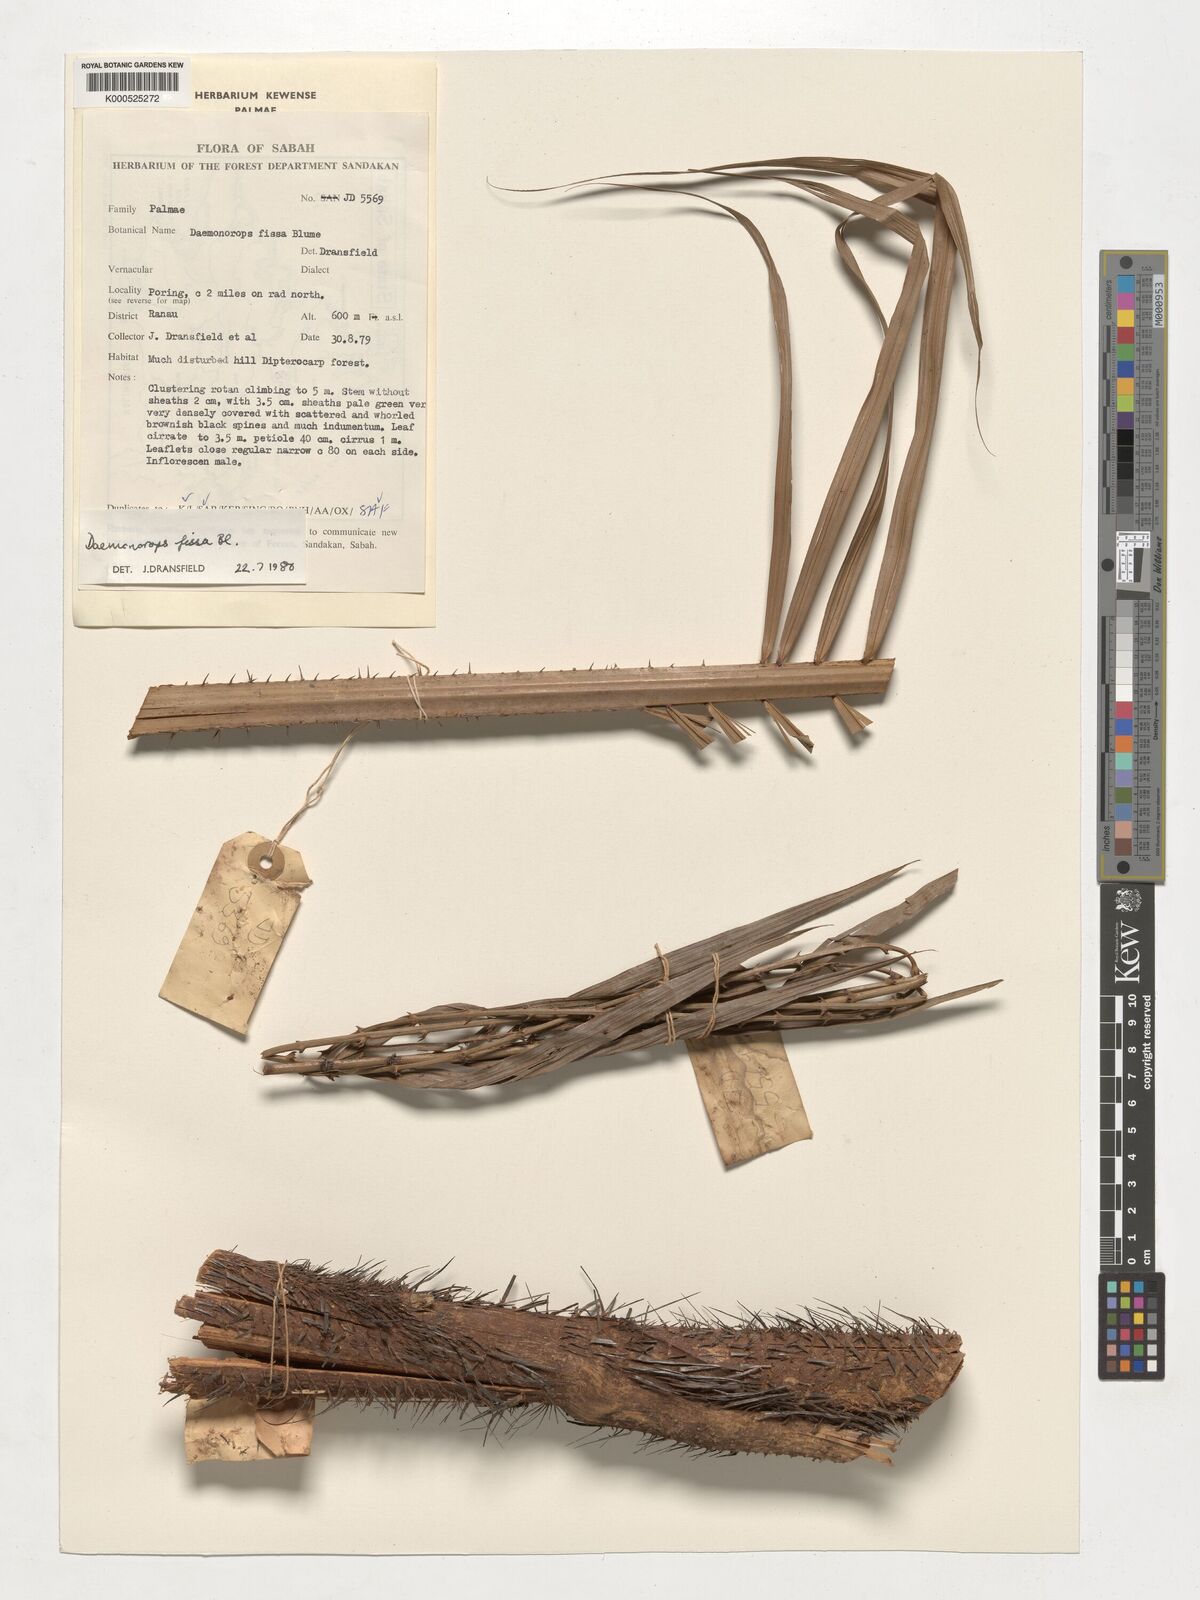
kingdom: Plantae
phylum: Tracheophyta
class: Liliopsida
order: Arecales
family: Arecaceae
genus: Calamus
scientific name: Calamus melanochaetes
